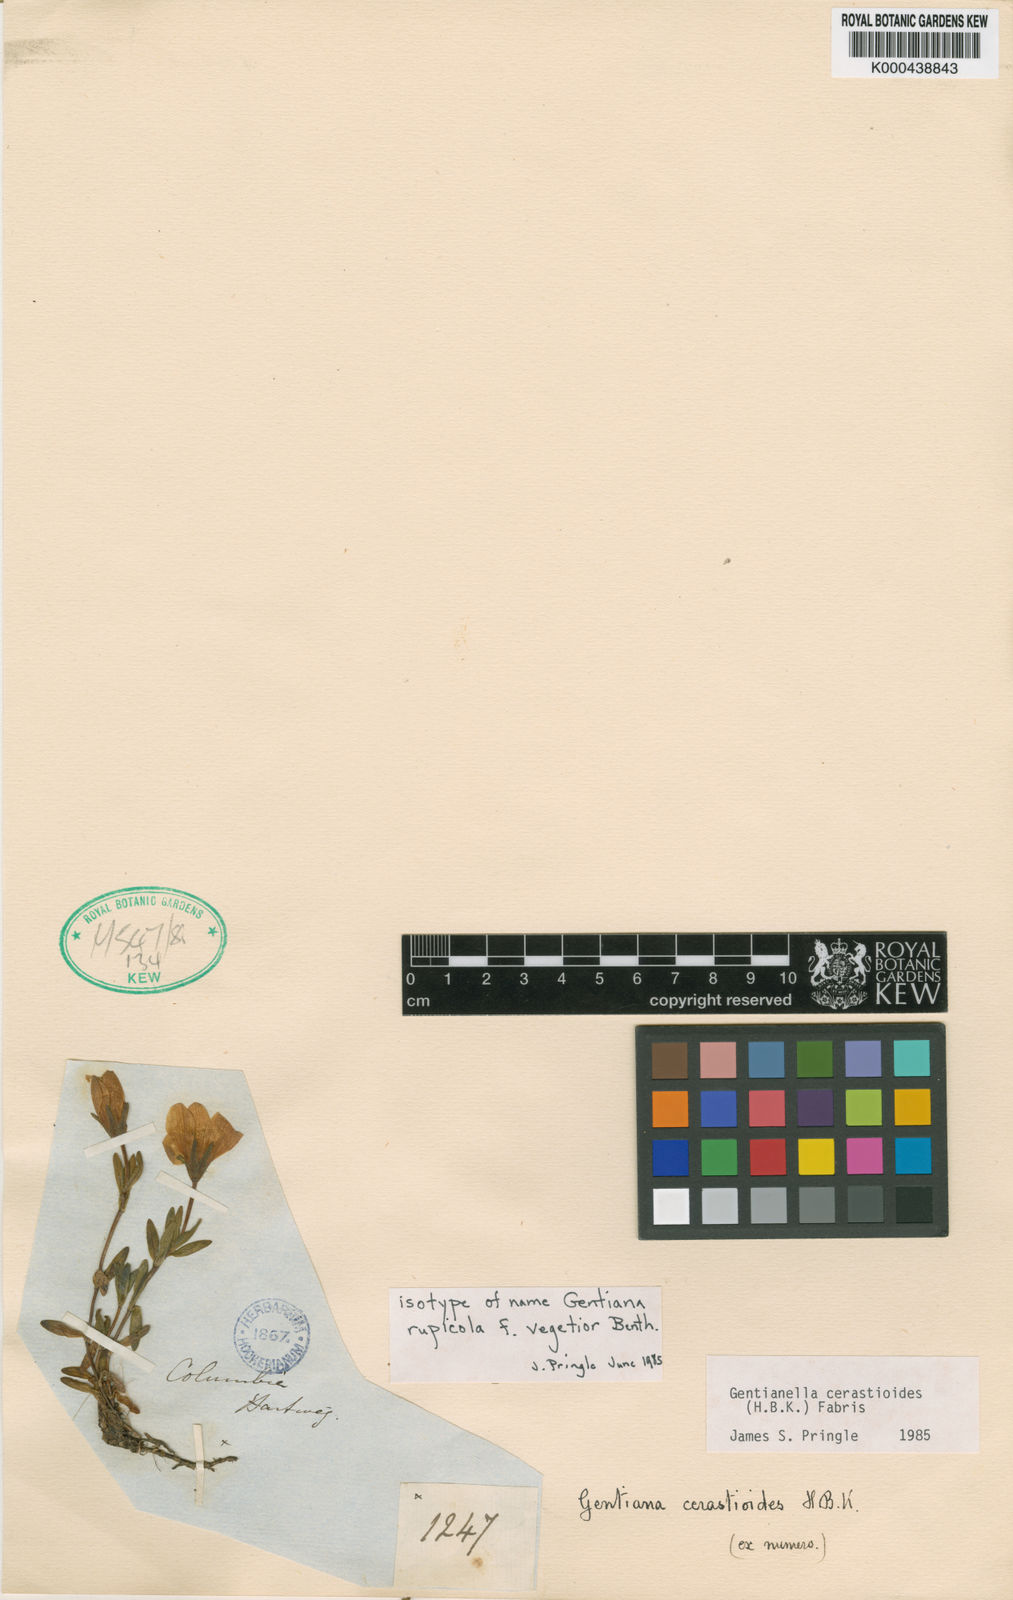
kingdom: Plantae
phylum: Tracheophyta
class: Magnoliopsida
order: Gentianales
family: Gentianaceae
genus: Gentianella
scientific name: Gentianella cerastioides
